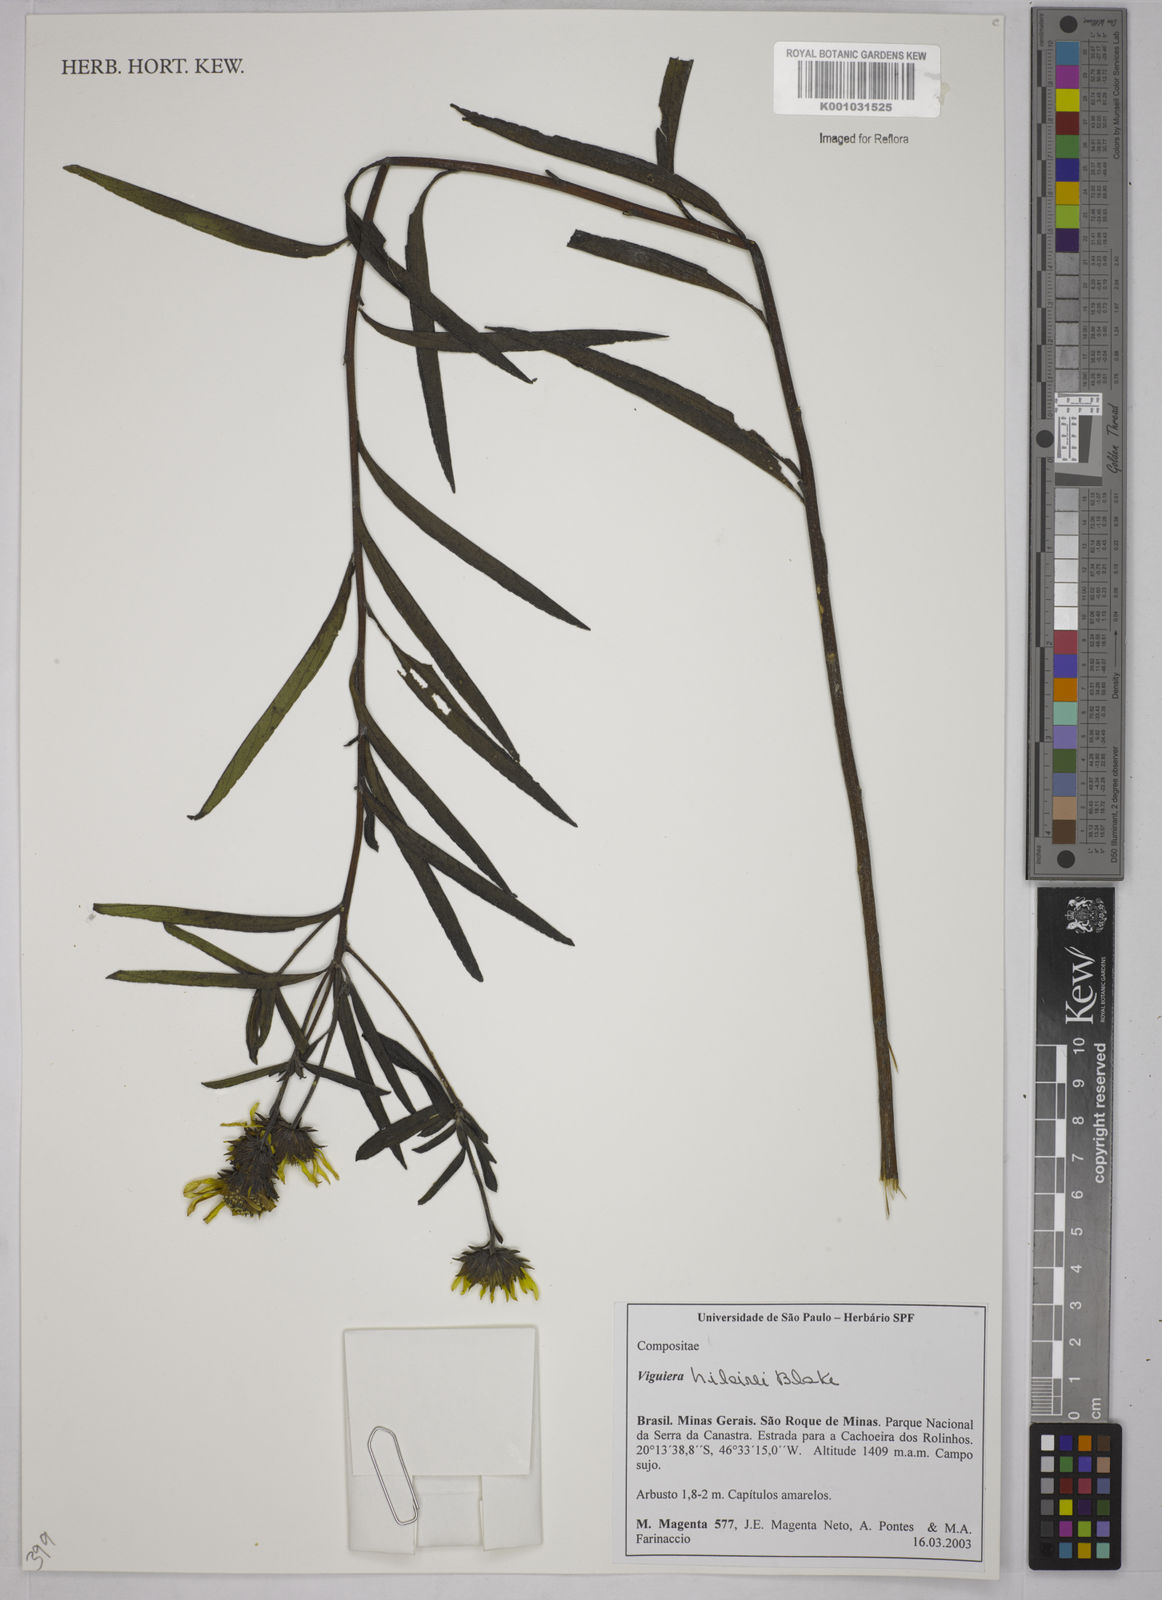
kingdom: Plantae
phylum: Tracheophyta
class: Magnoliopsida
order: Asterales
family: Asteraceae
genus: Aldama
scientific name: Aldama hilairei
